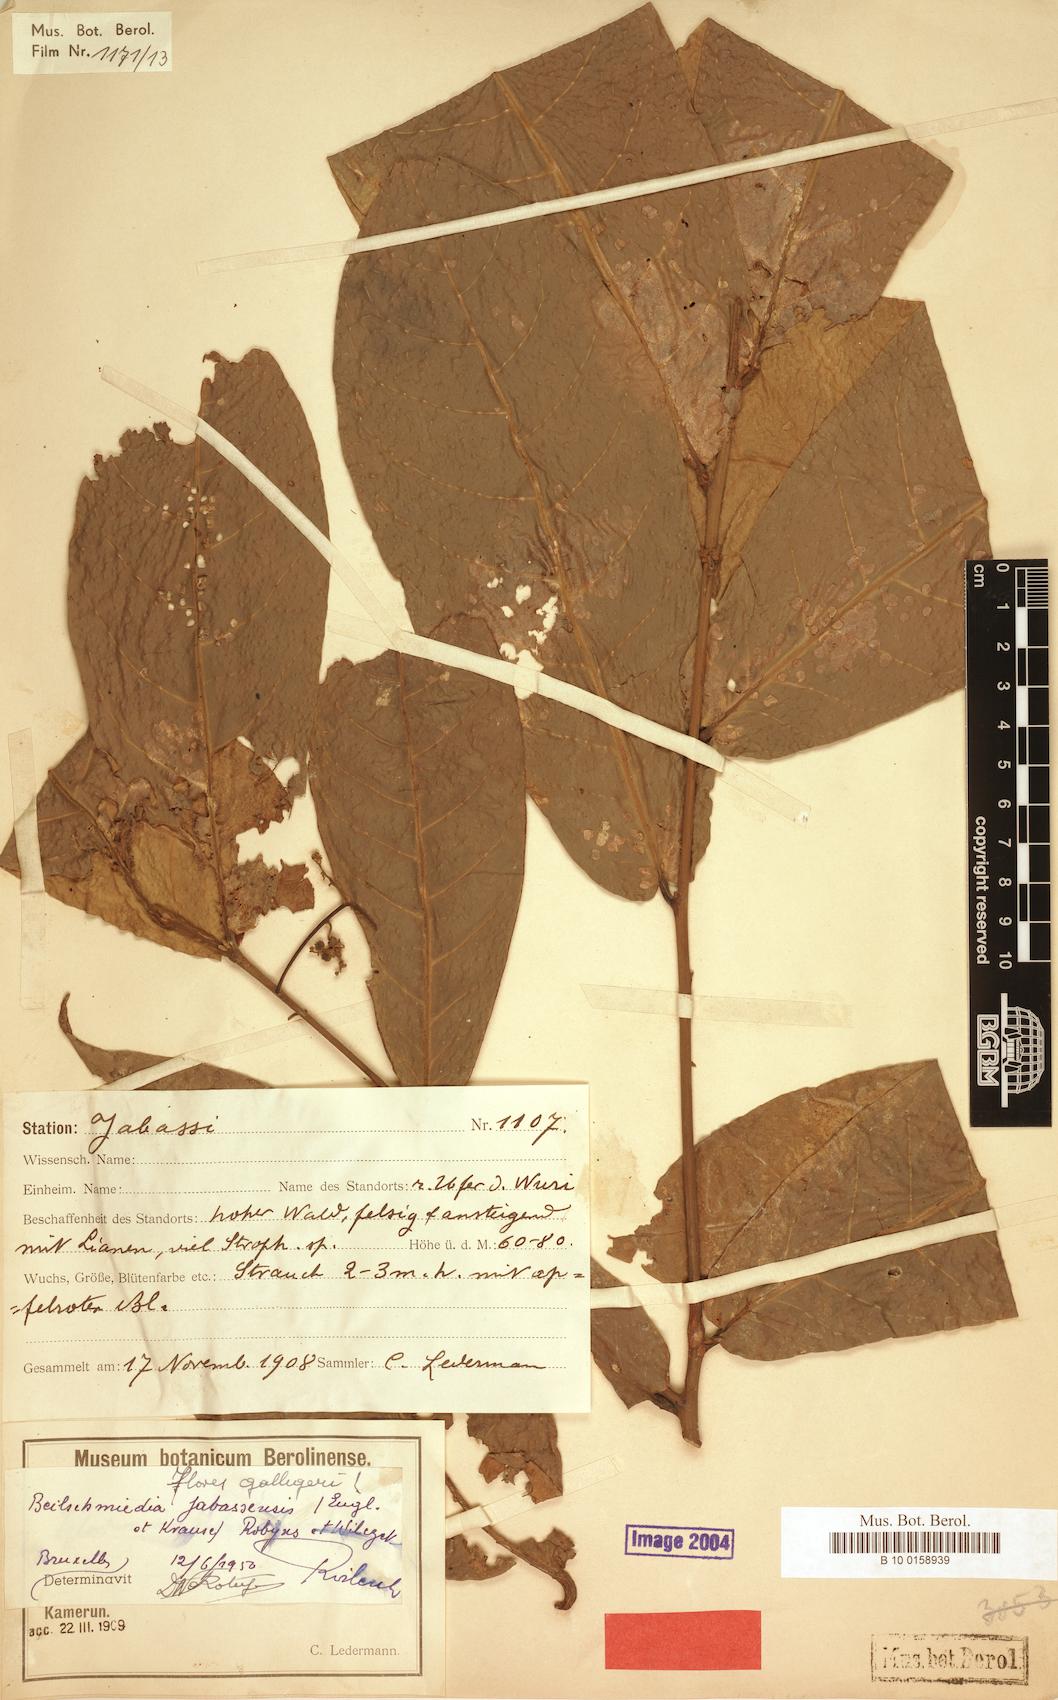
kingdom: Plantae
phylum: Tracheophyta
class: Magnoliopsida
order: Laurales
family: Lauraceae
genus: Beilschmiedia
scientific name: Beilschmiedia jabassensis
